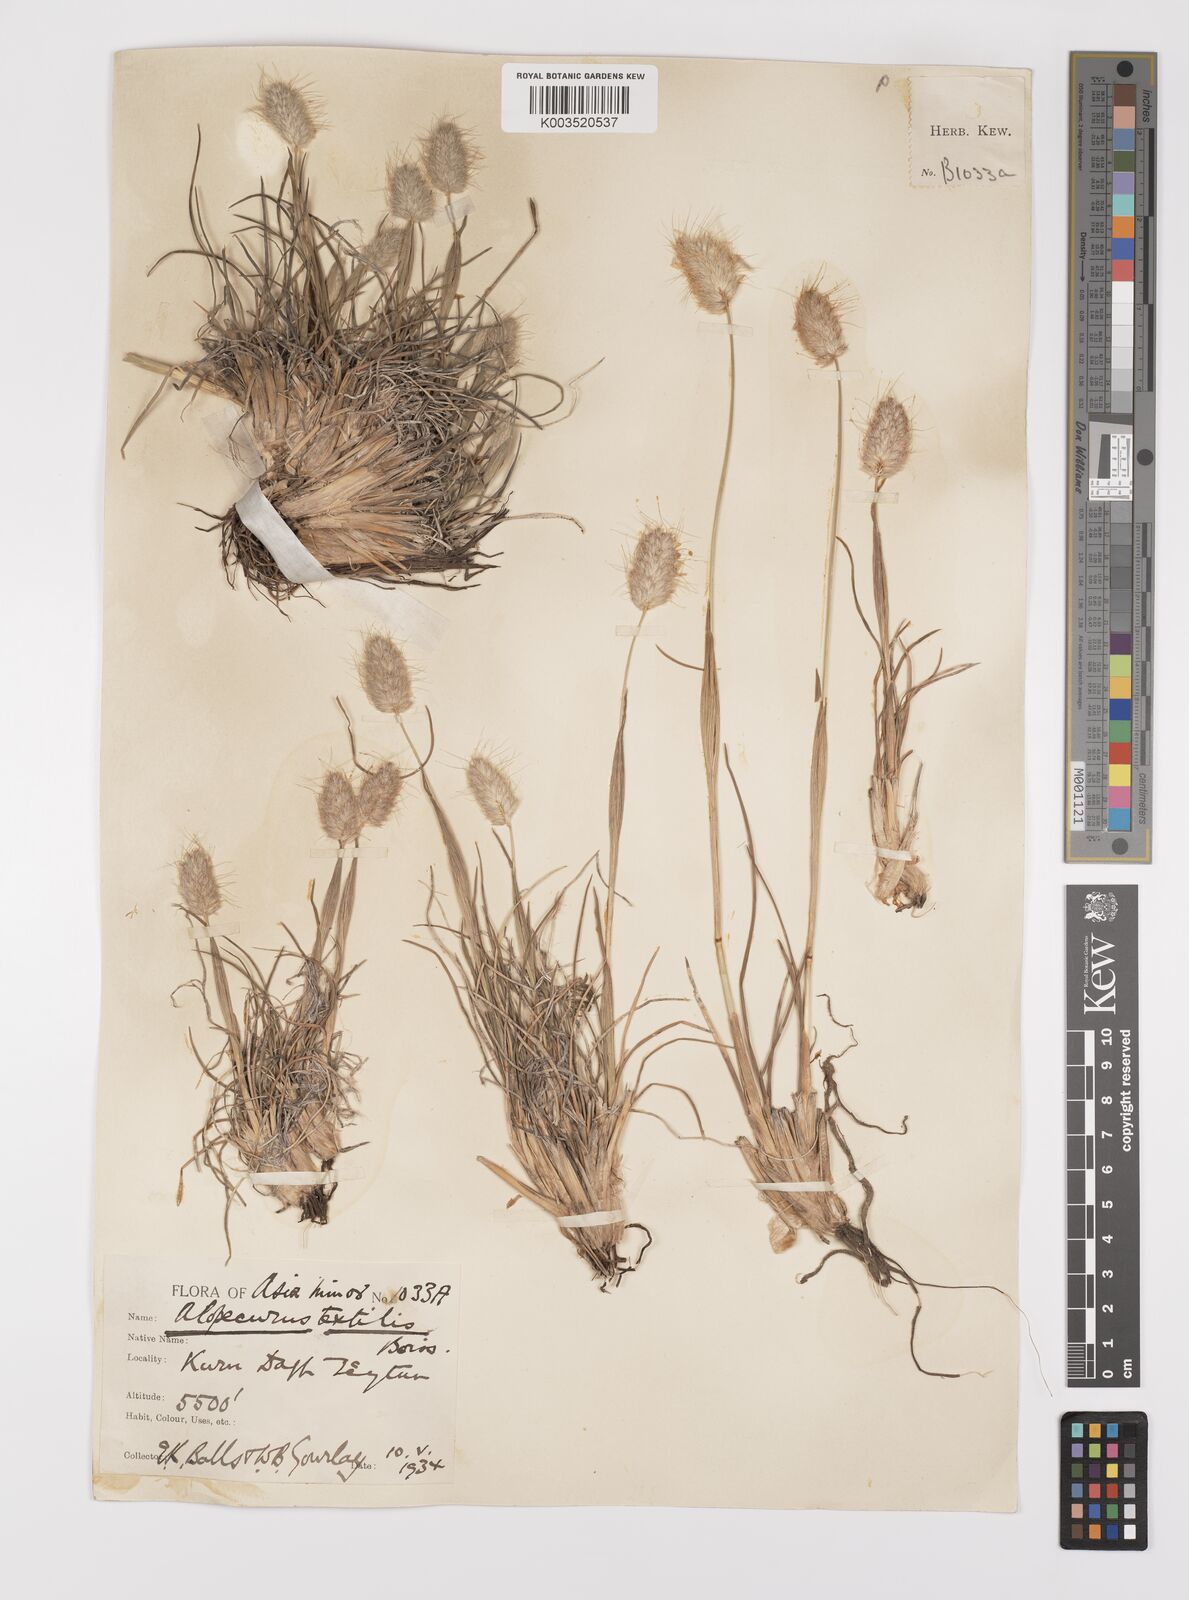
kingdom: Plantae
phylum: Tracheophyta
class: Liliopsida
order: Poales
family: Poaceae
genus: Alopecurus
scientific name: Alopecurus textilis
